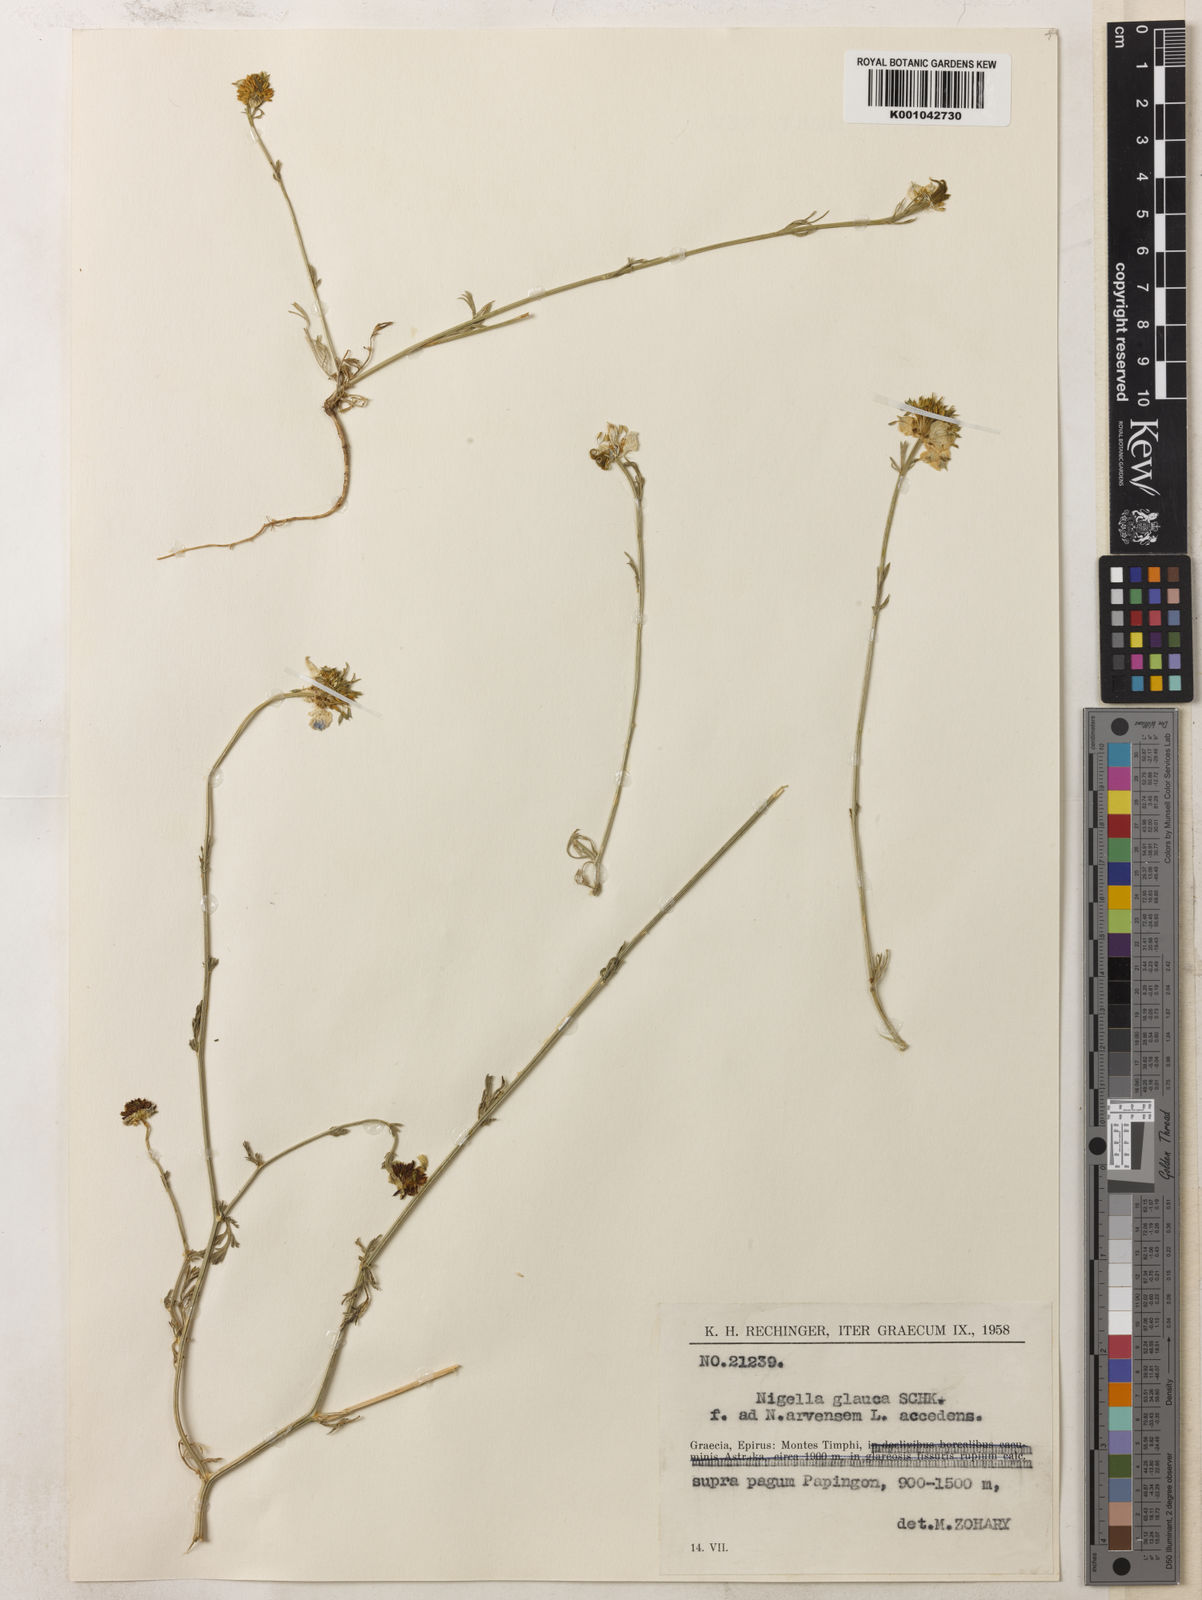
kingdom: Plantae
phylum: Tracheophyta
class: Magnoliopsida
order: Ranunculales
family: Ranunculaceae
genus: Nigella
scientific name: Nigella arvensis
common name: Wild fennel-flower
